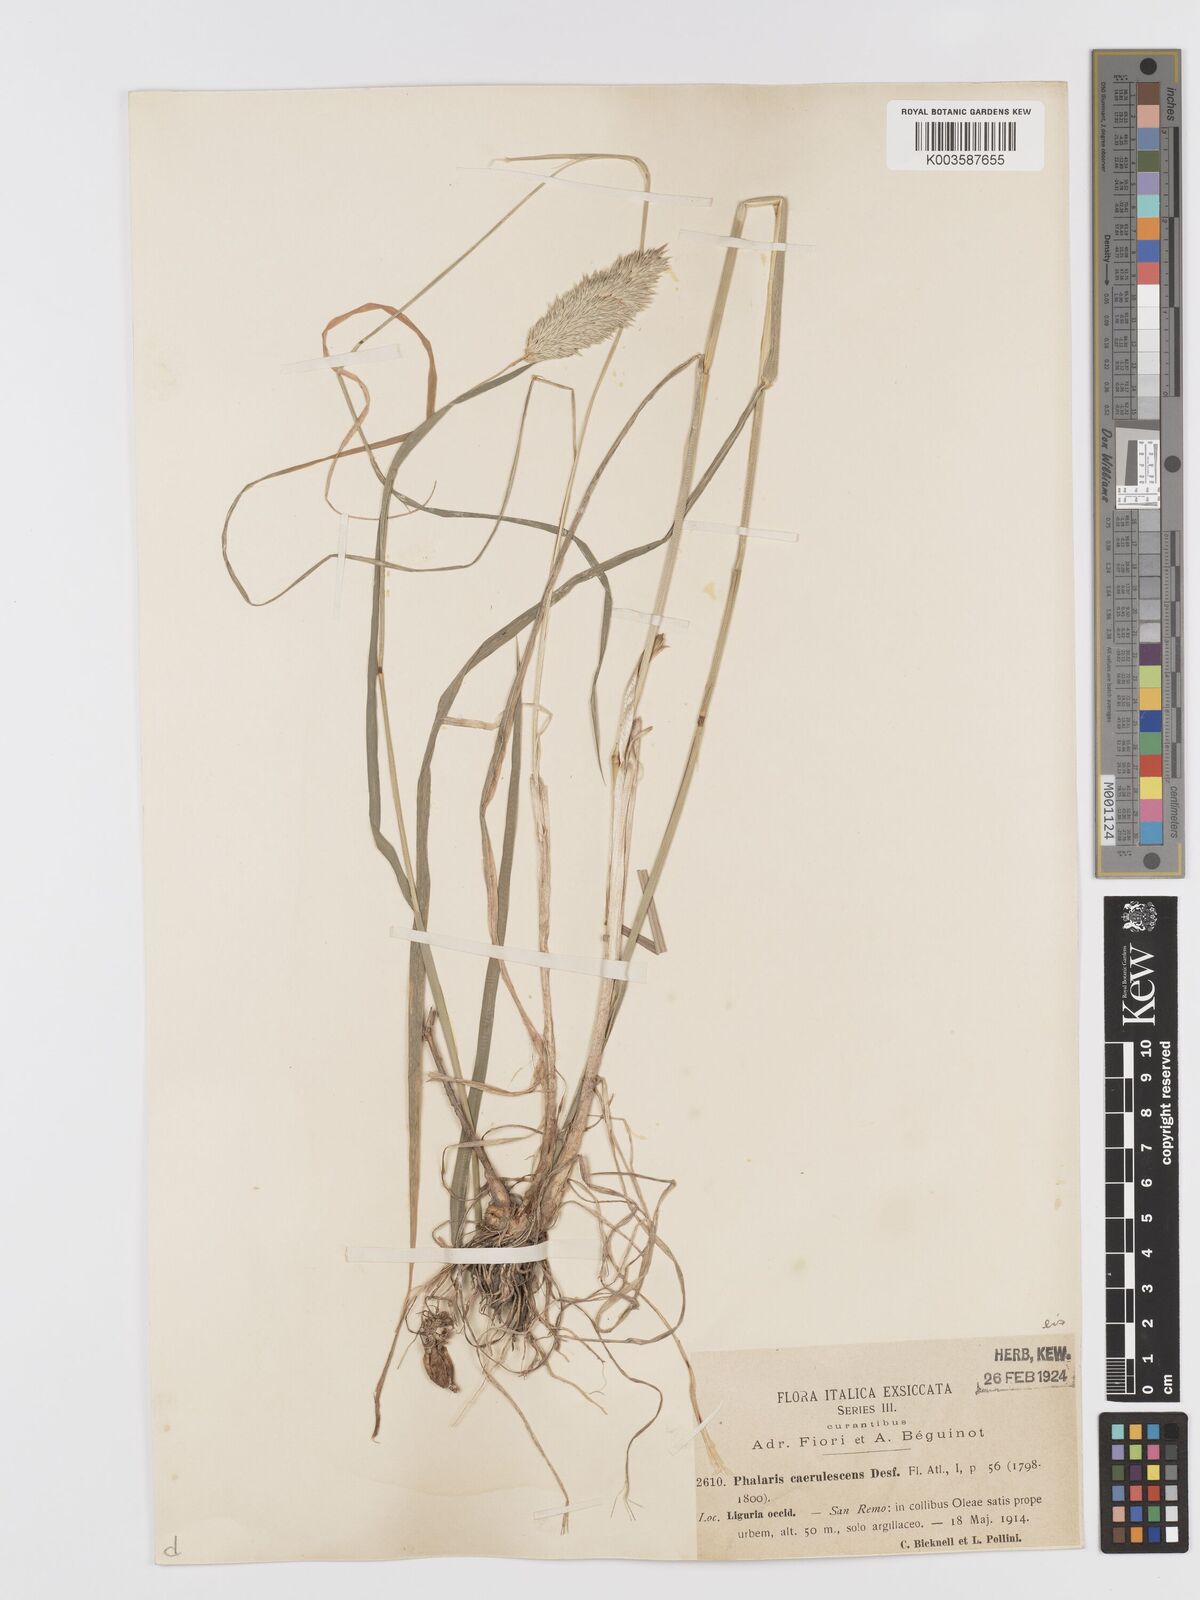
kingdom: Plantae
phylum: Tracheophyta
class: Liliopsida
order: Poales
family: Poaceae
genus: Phalaris
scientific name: Phalaris coerulescens
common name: Sunolgrass
